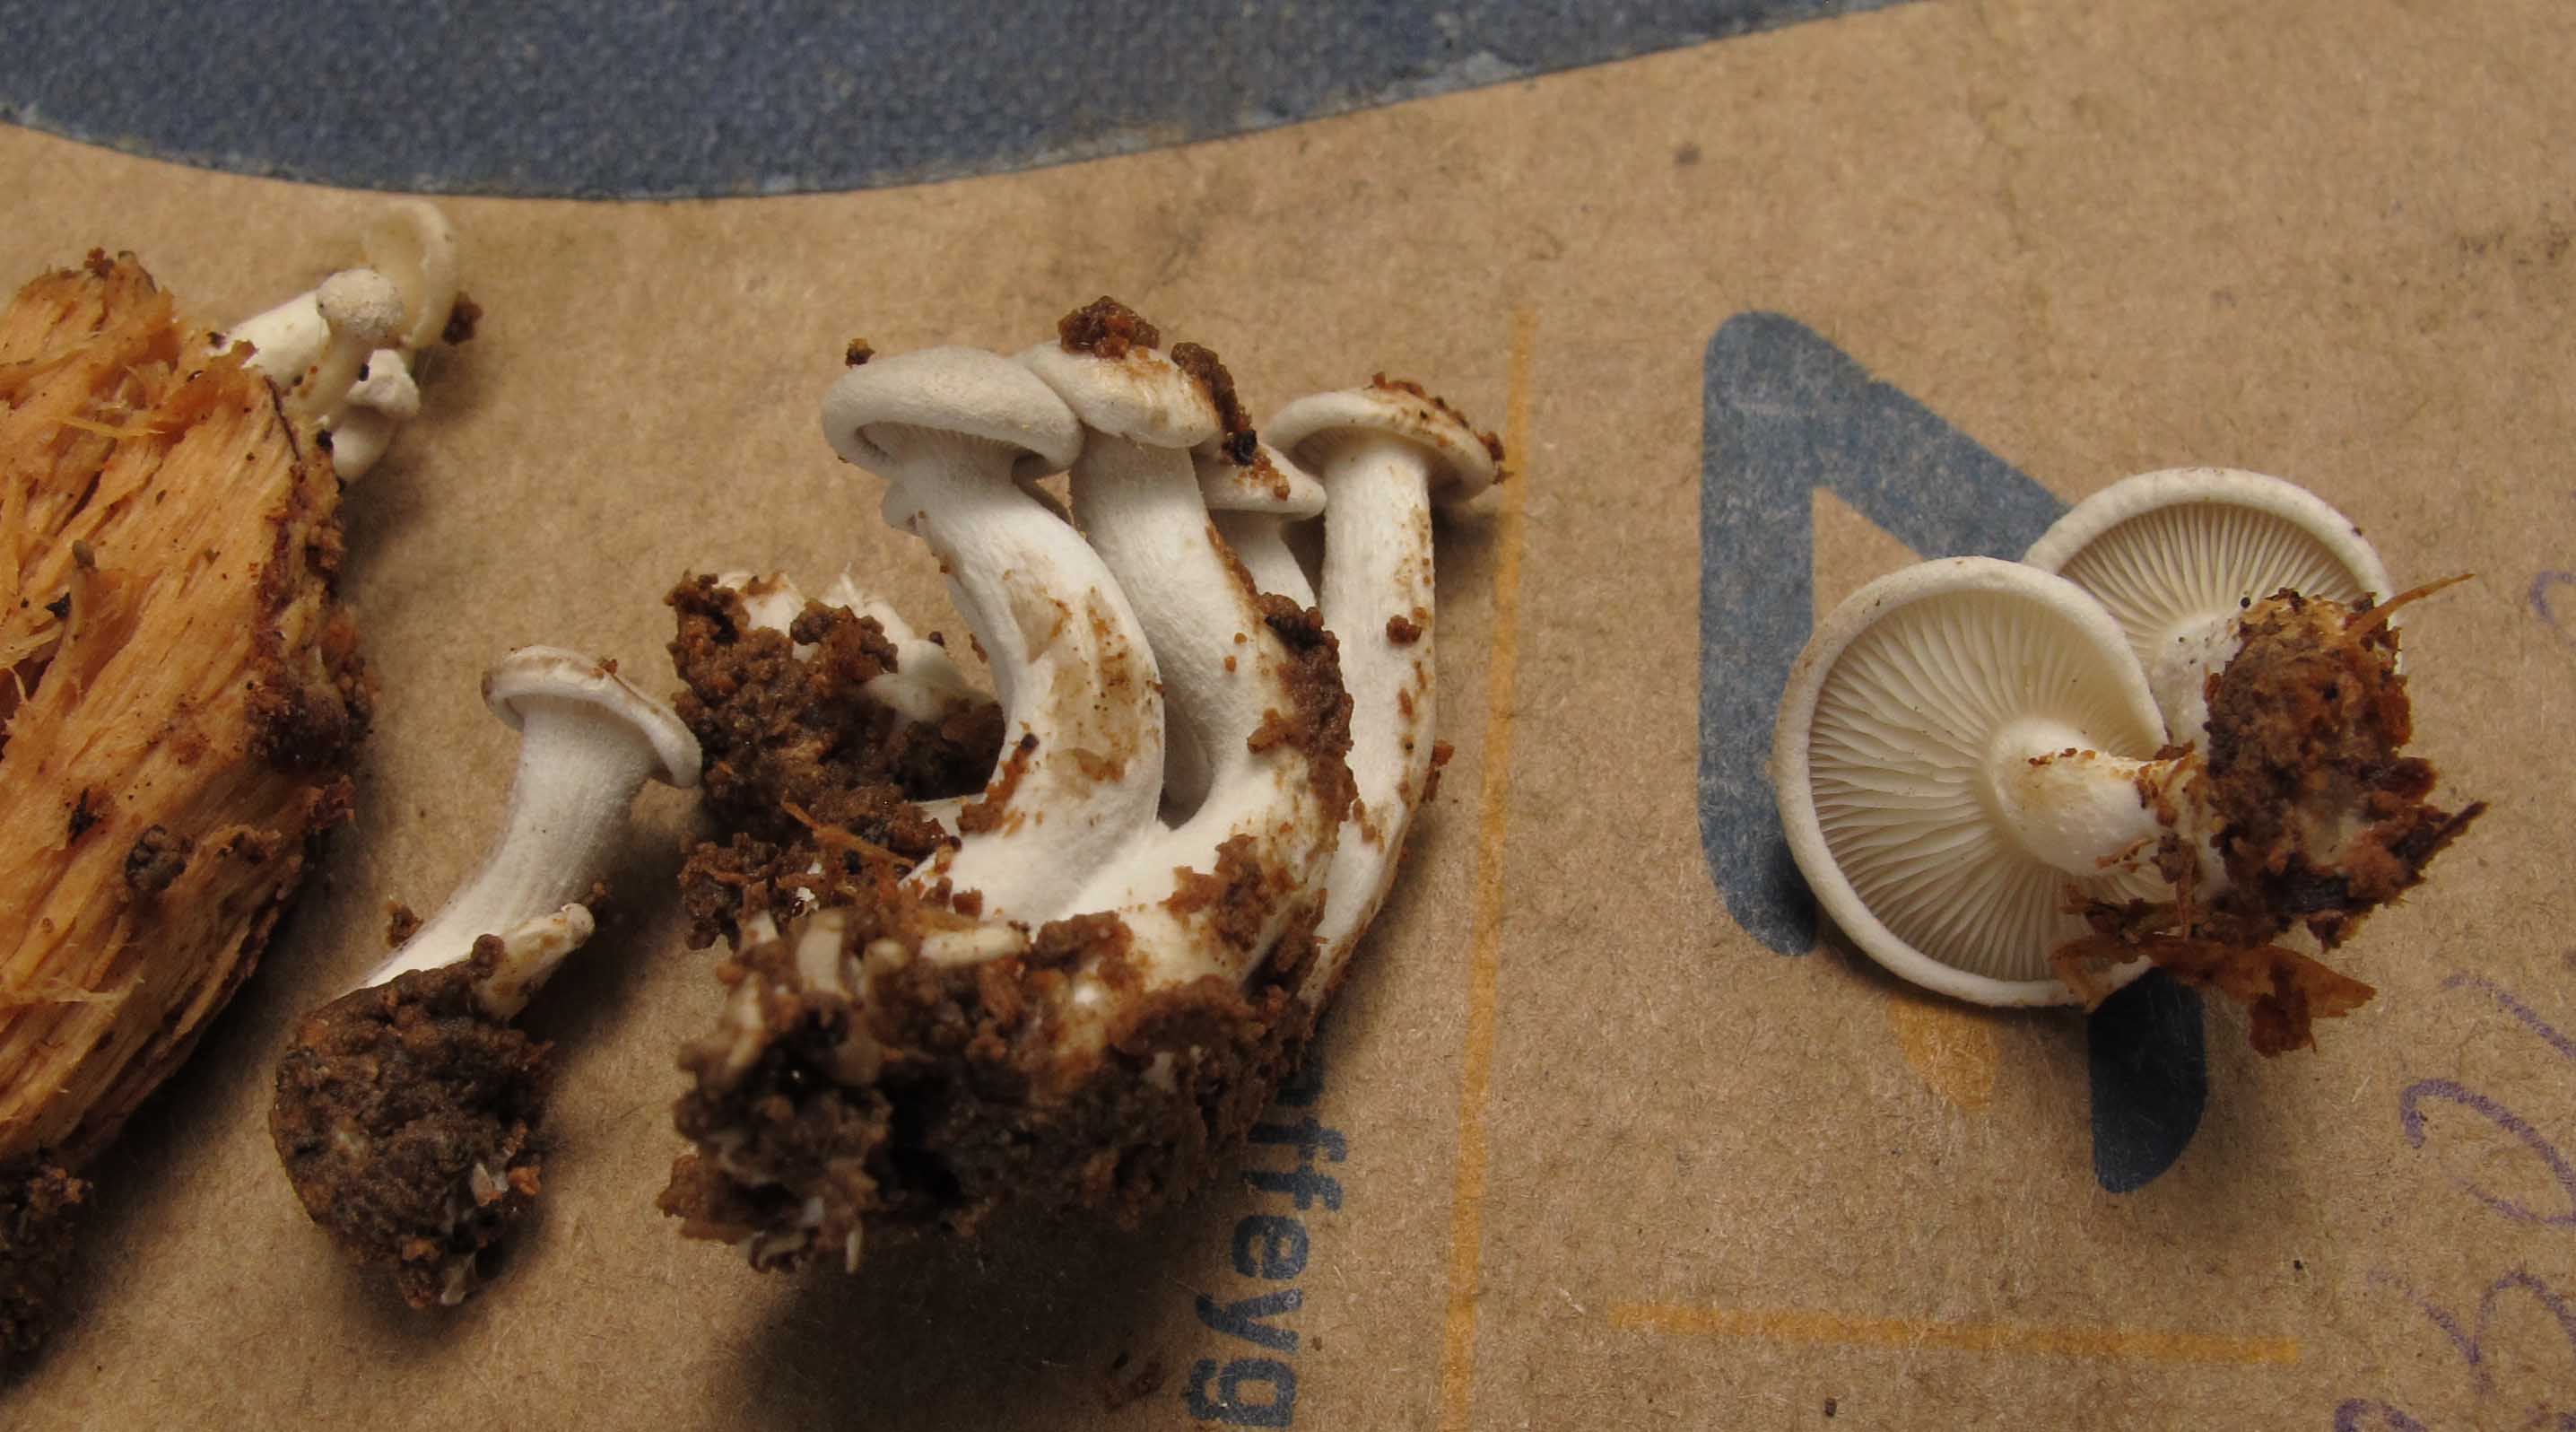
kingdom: Fungi
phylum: Basidiomycota
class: Agaricomycetes
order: Agaricales
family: Lyophyllaceae
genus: Ossicaulis
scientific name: Ossicaulis lignatilis
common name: hvidlig vedtragthat
